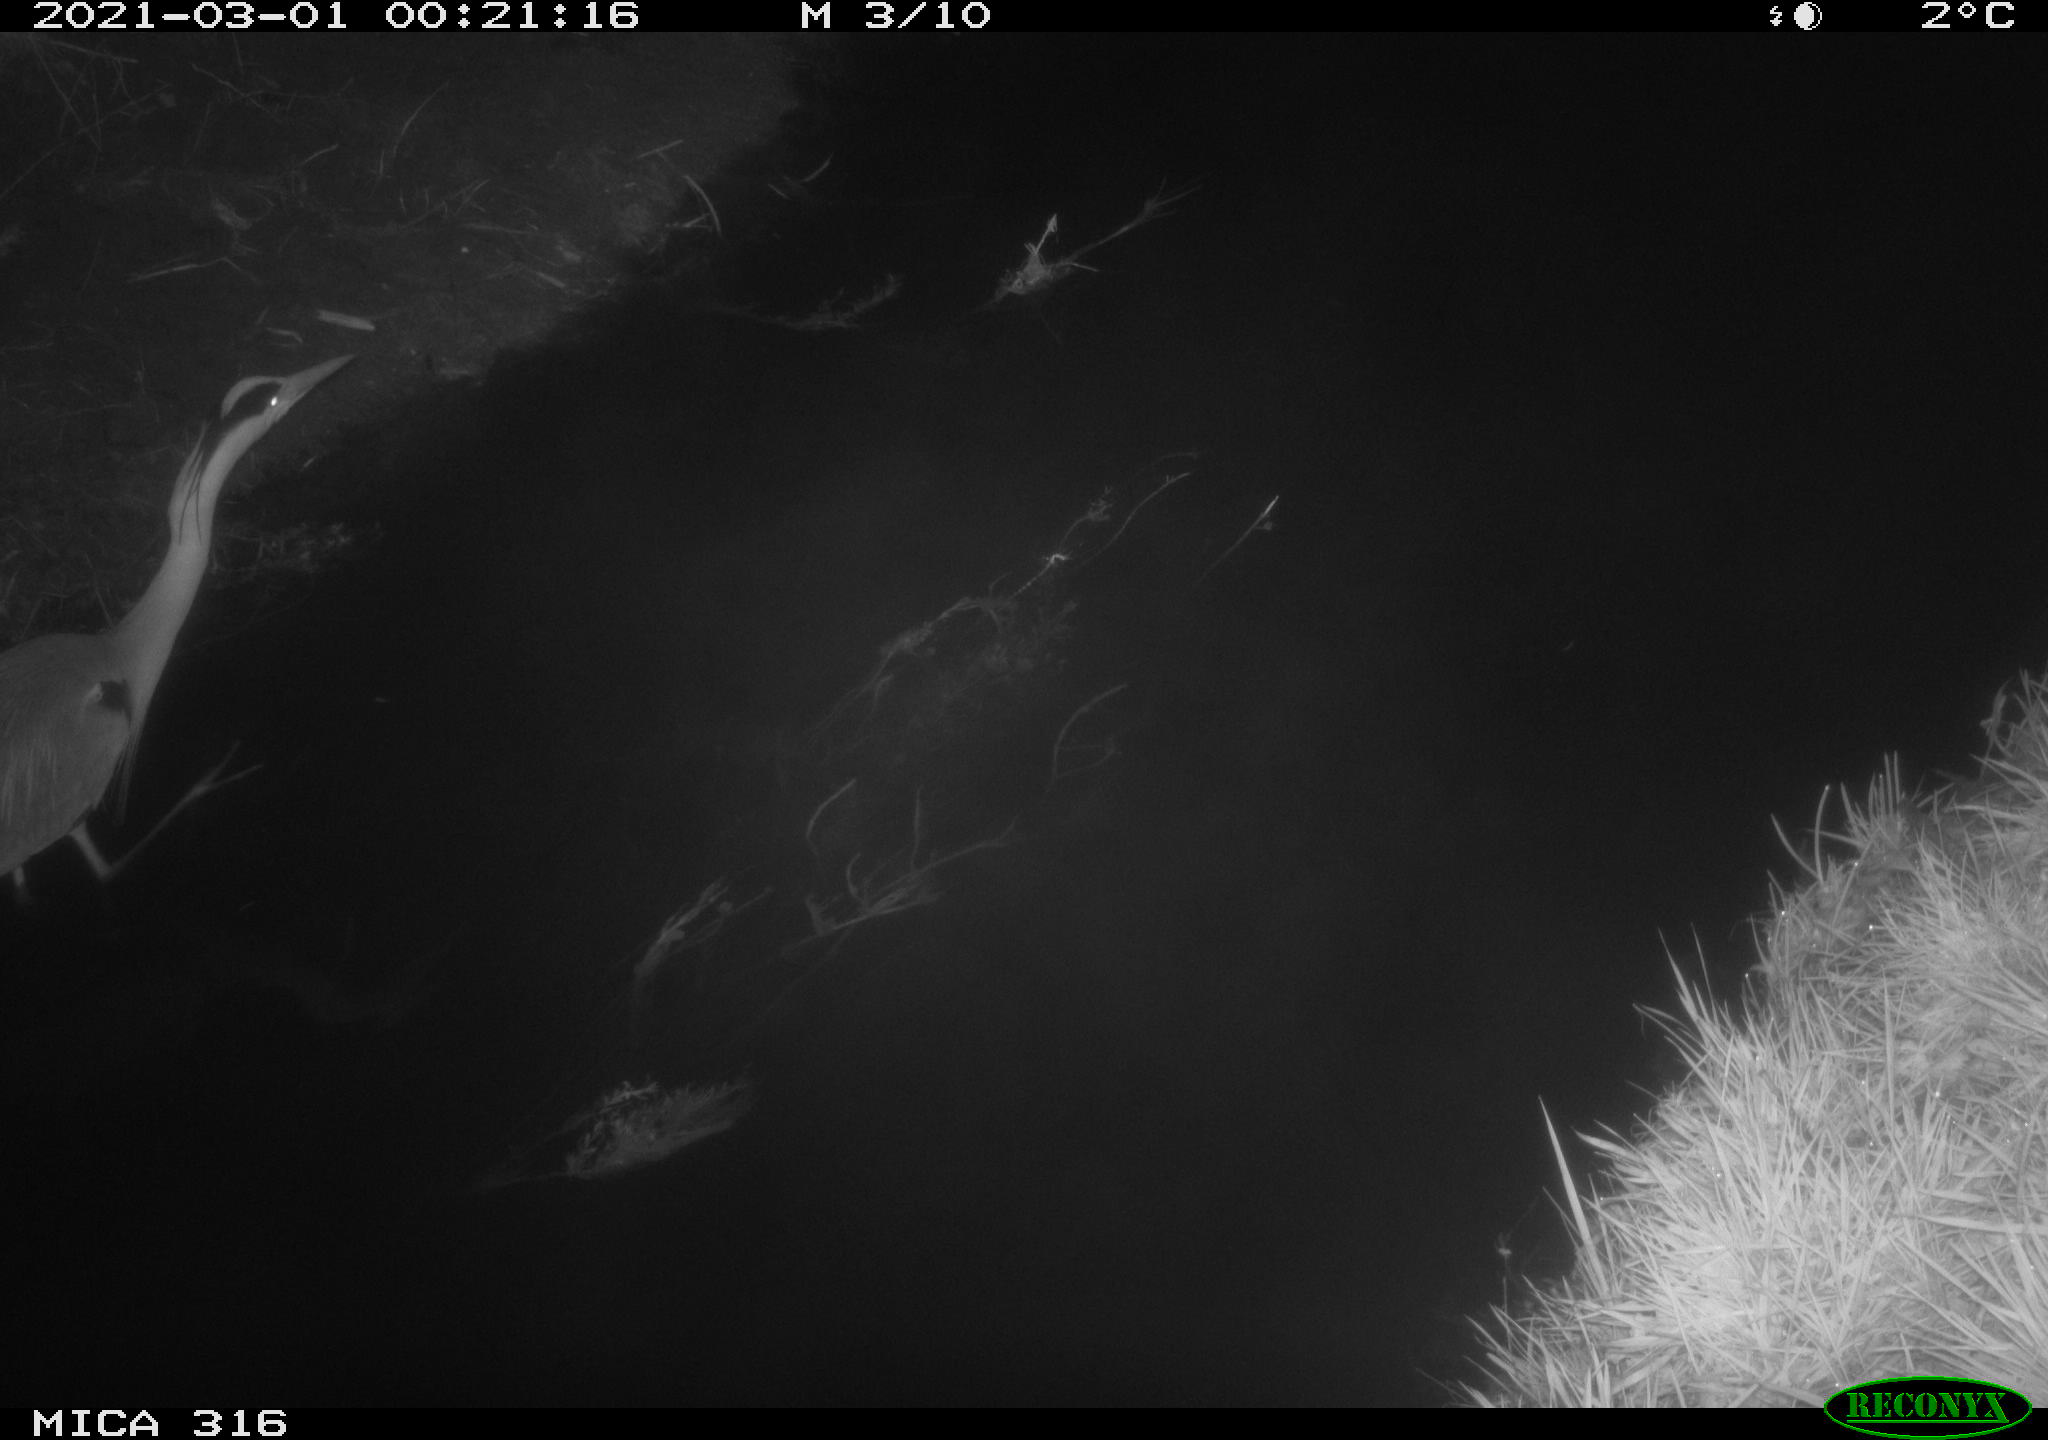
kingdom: Animalia
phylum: Chordata
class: Aves
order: Pelecaniformes
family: Ardeidae
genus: Ardea
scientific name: Ardea
